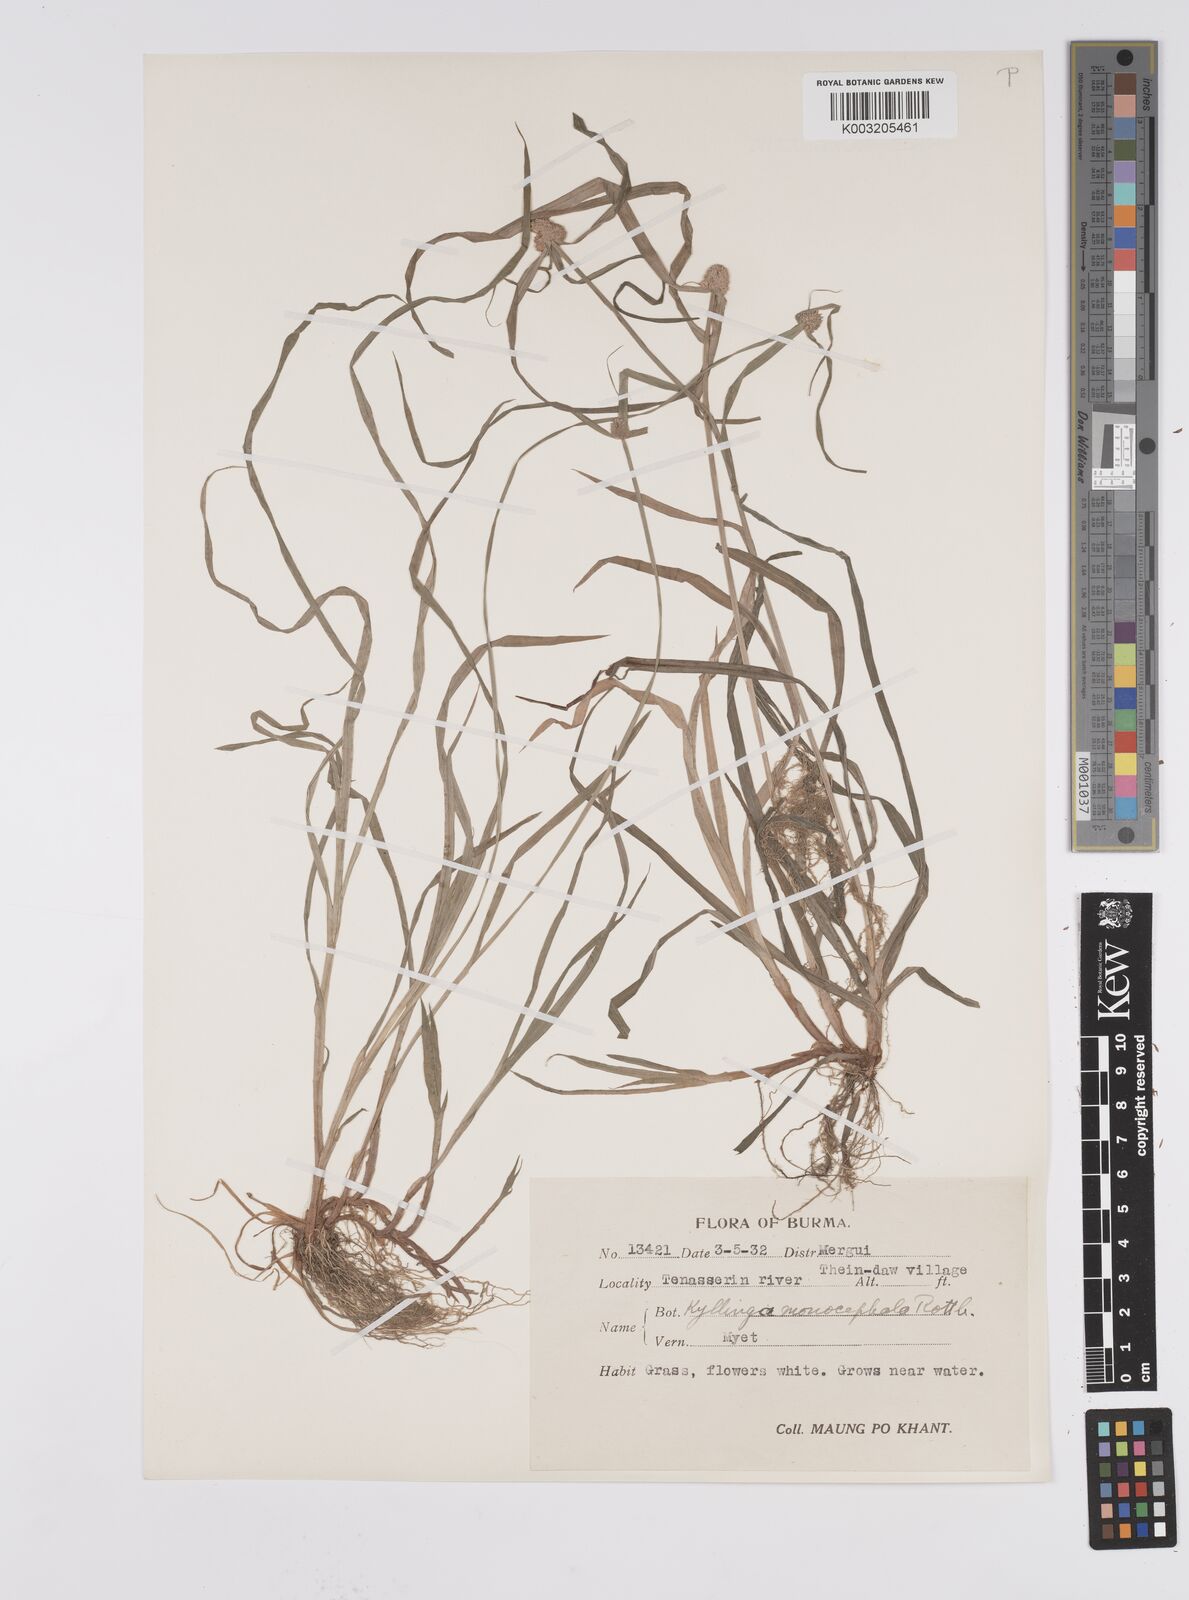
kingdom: Plantae
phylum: Tracheophyta
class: Liliopsida
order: Poales
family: Cyperaceae
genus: Cyperus
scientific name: Cyperus nemoralis
